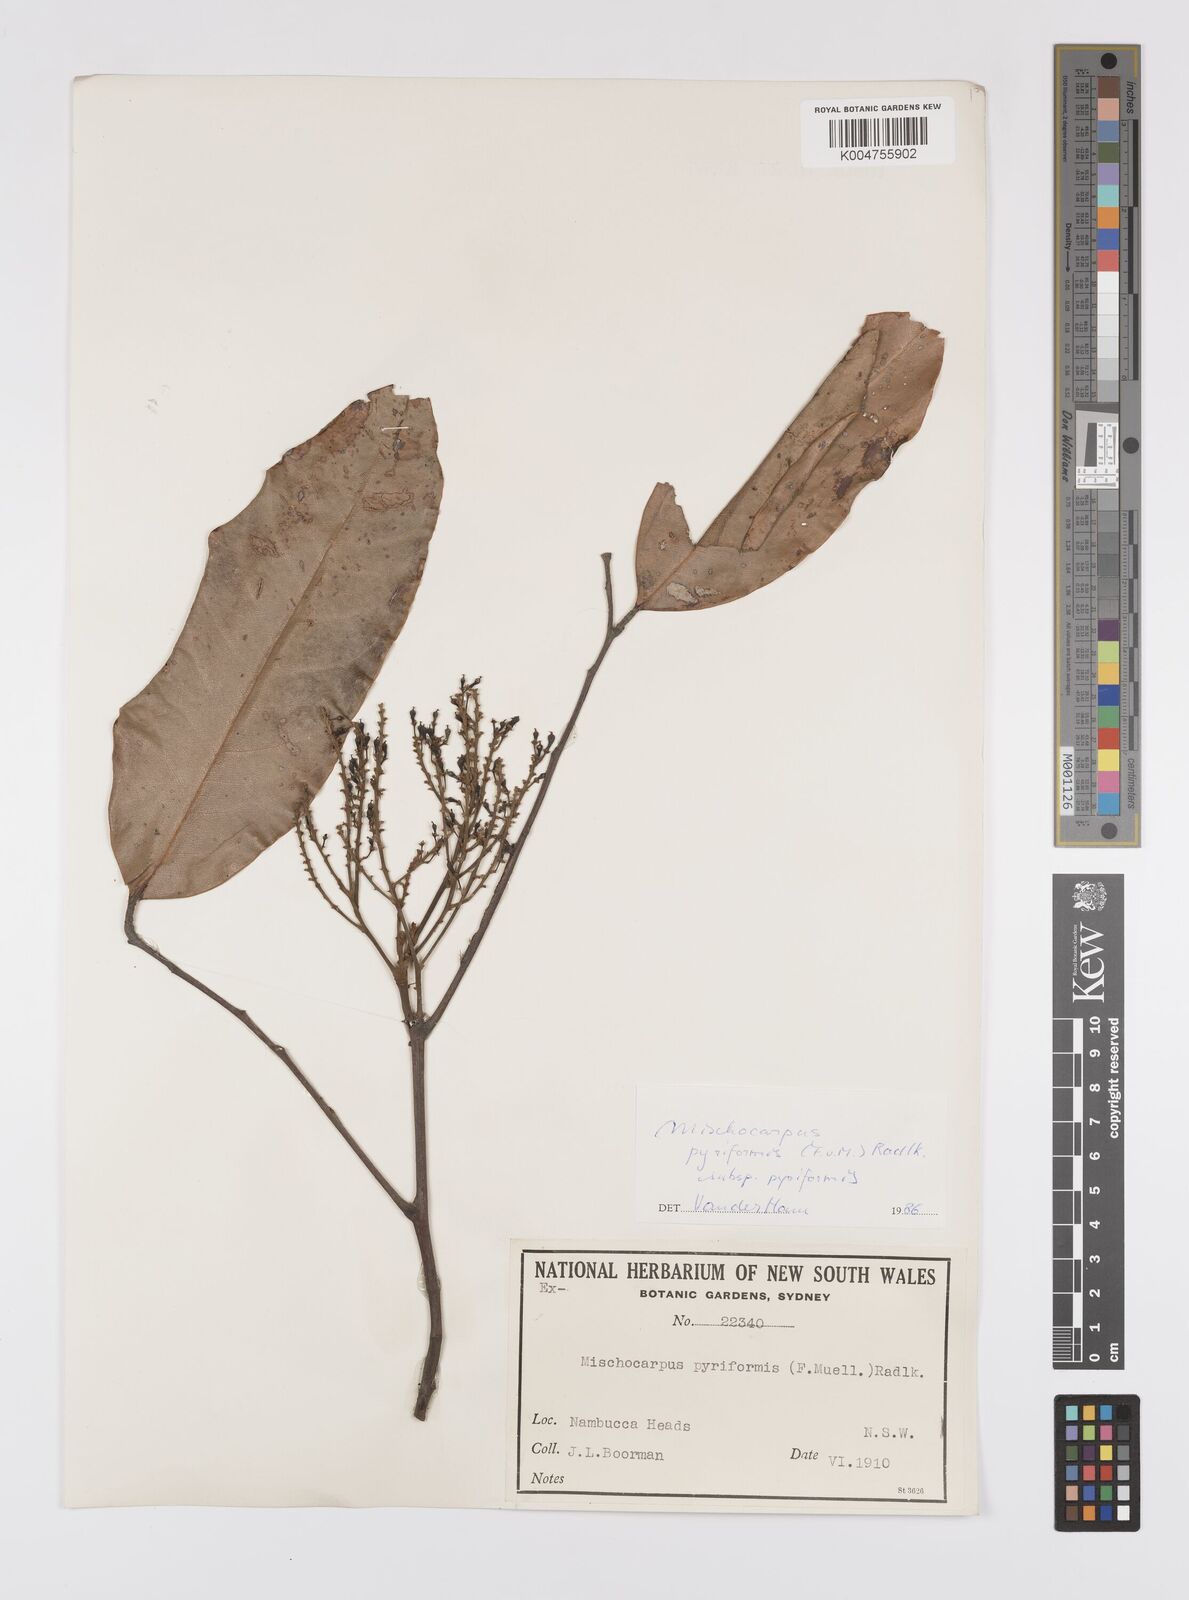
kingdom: Plantae
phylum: Tracheophyta
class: Magnoliopsida
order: Sapindales
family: Sapindaceae
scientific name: Sapindaceae
